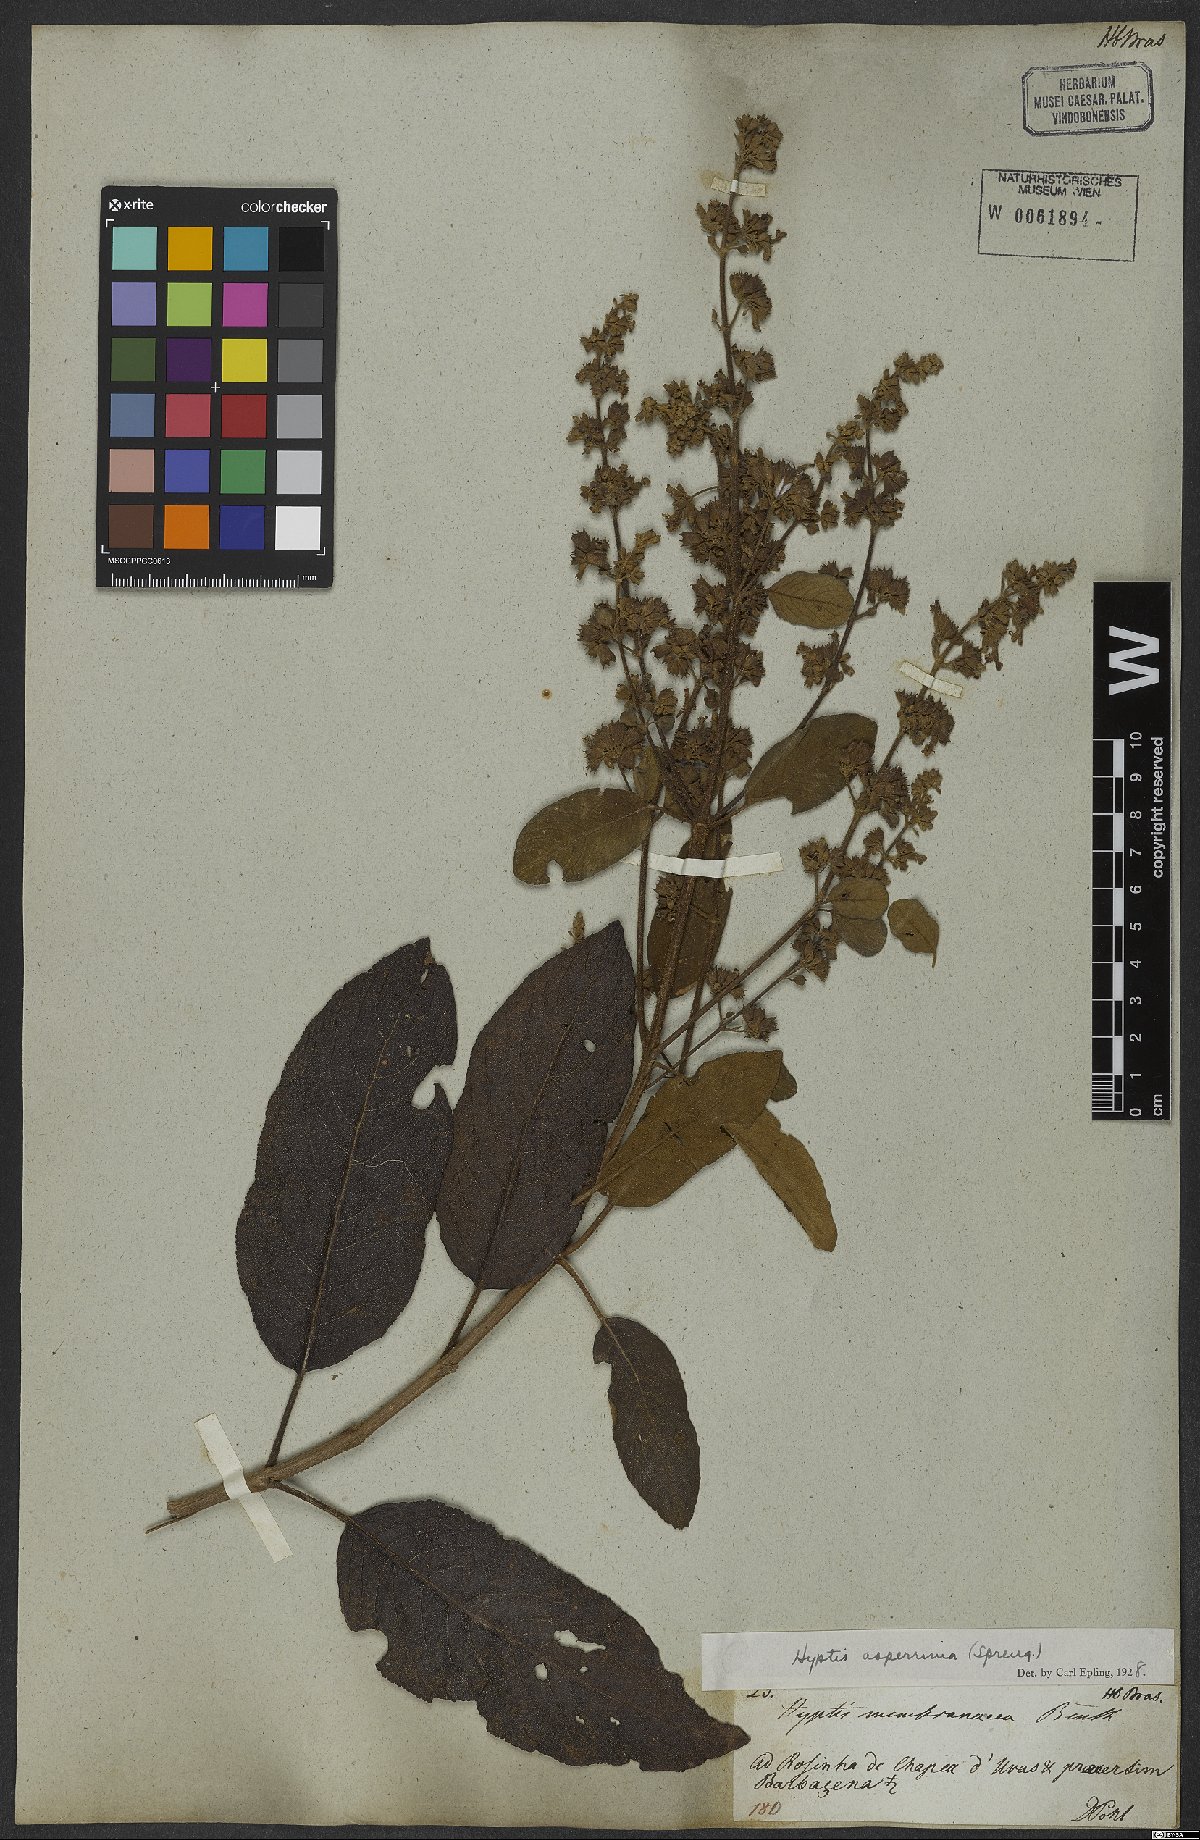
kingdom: Plantae
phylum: Tracheophyta
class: Magnoliopsida
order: Lamiales
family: Lamiaceae
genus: Hyptidendron
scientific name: Hyptidendron asperrimum
